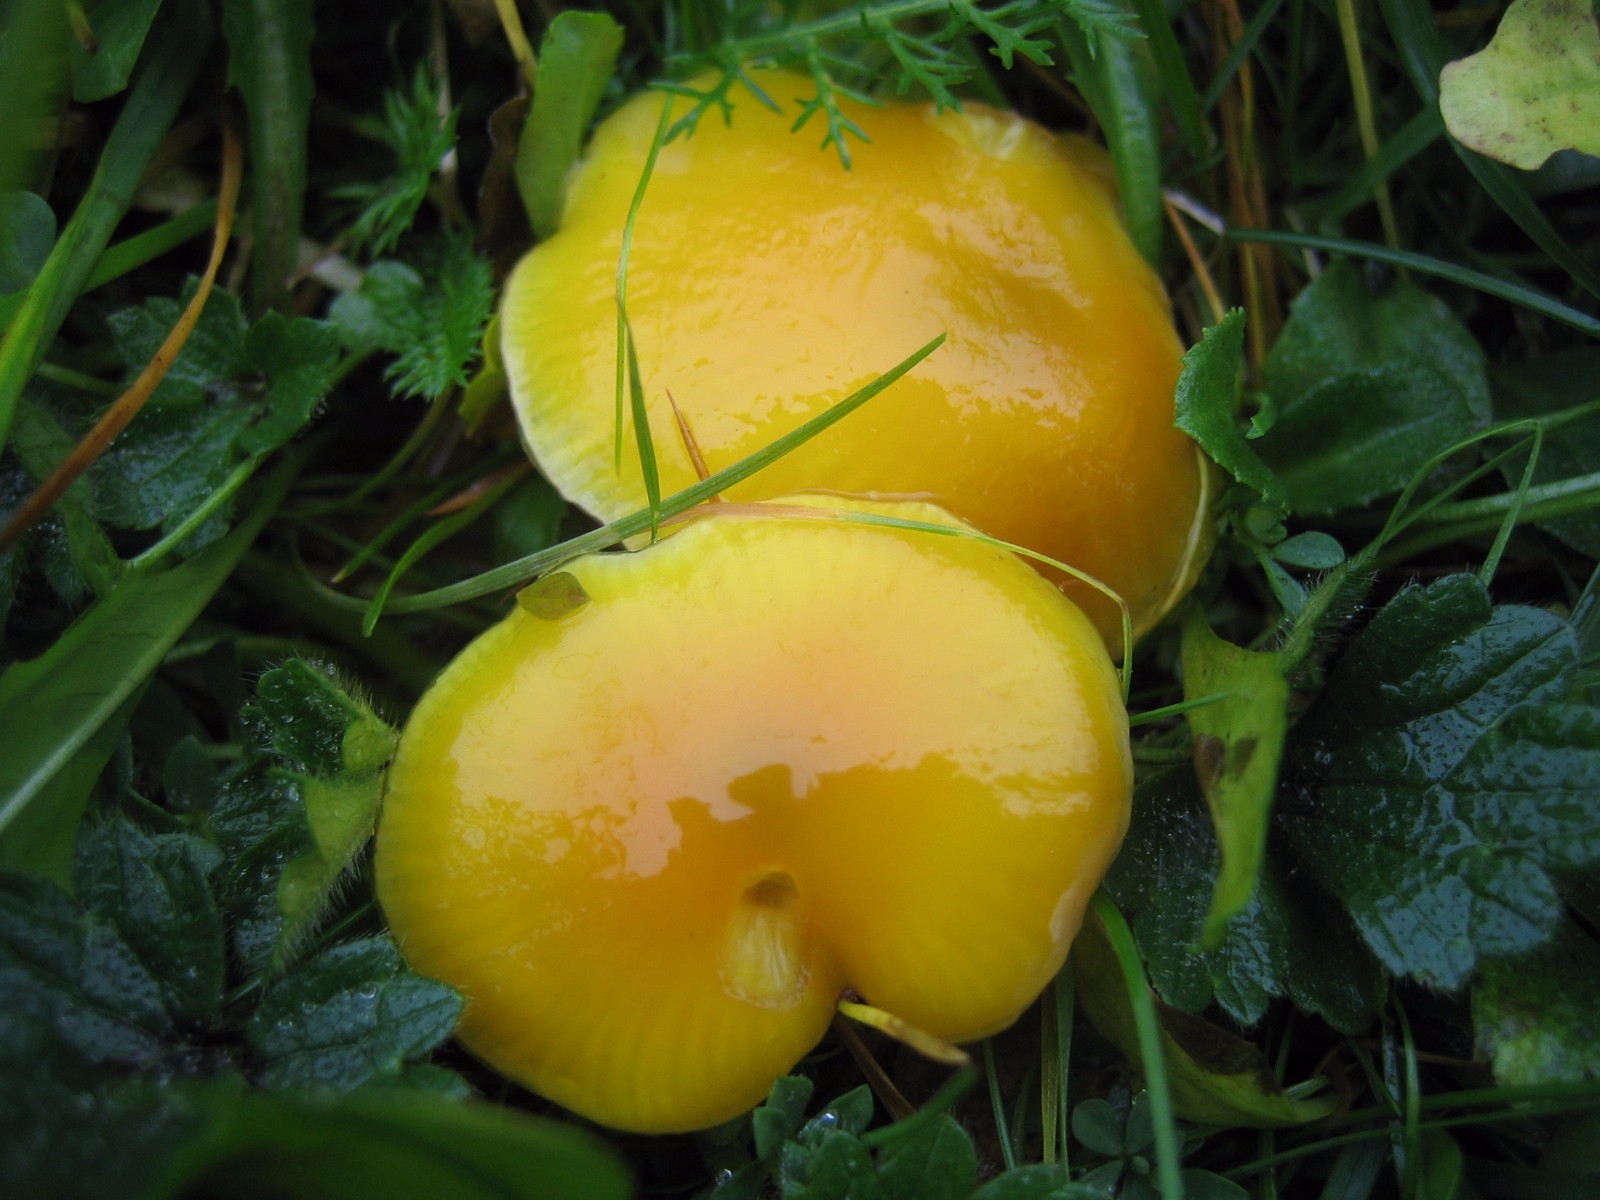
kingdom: Fungi
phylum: Basidiomycota
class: Agaricomycetes
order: Agaricales
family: Hygrophoraceae
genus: Hygrocybe
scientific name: Hygrocybe ceracea
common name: voksgul vokshat
